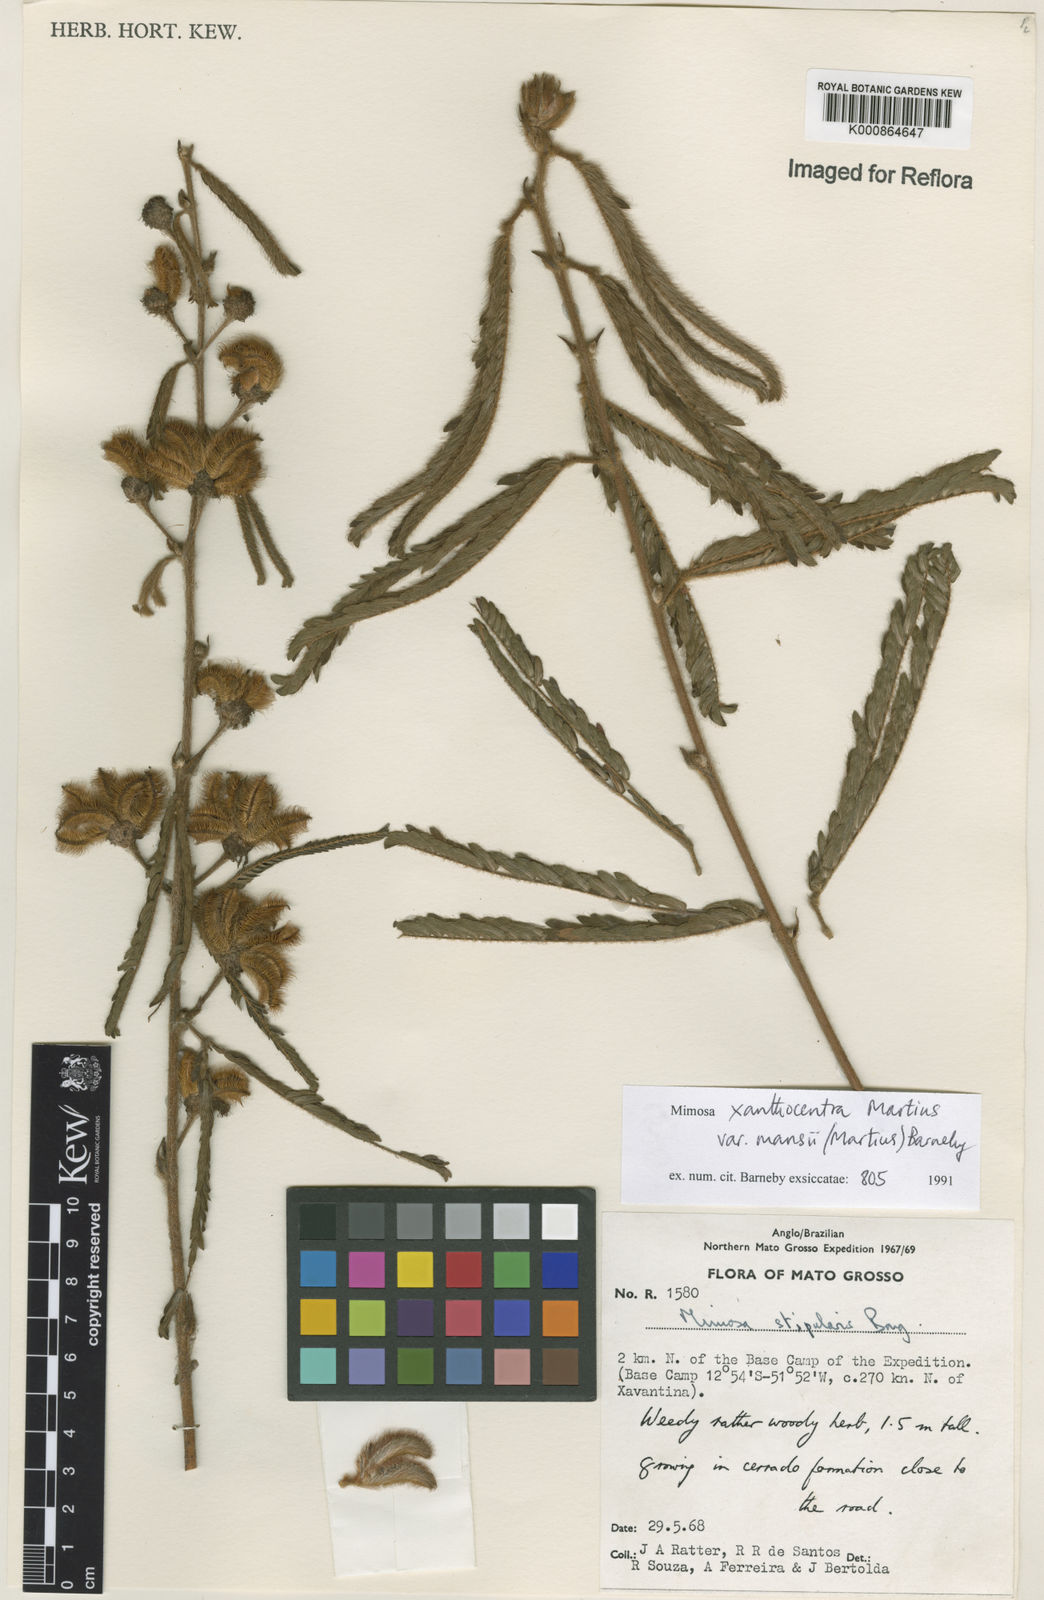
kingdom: Plantae
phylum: Tracheophyta
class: Magnoliopsida
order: Fabales
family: Fabaceae
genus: Mimosa
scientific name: Mimosa xanthocentra
